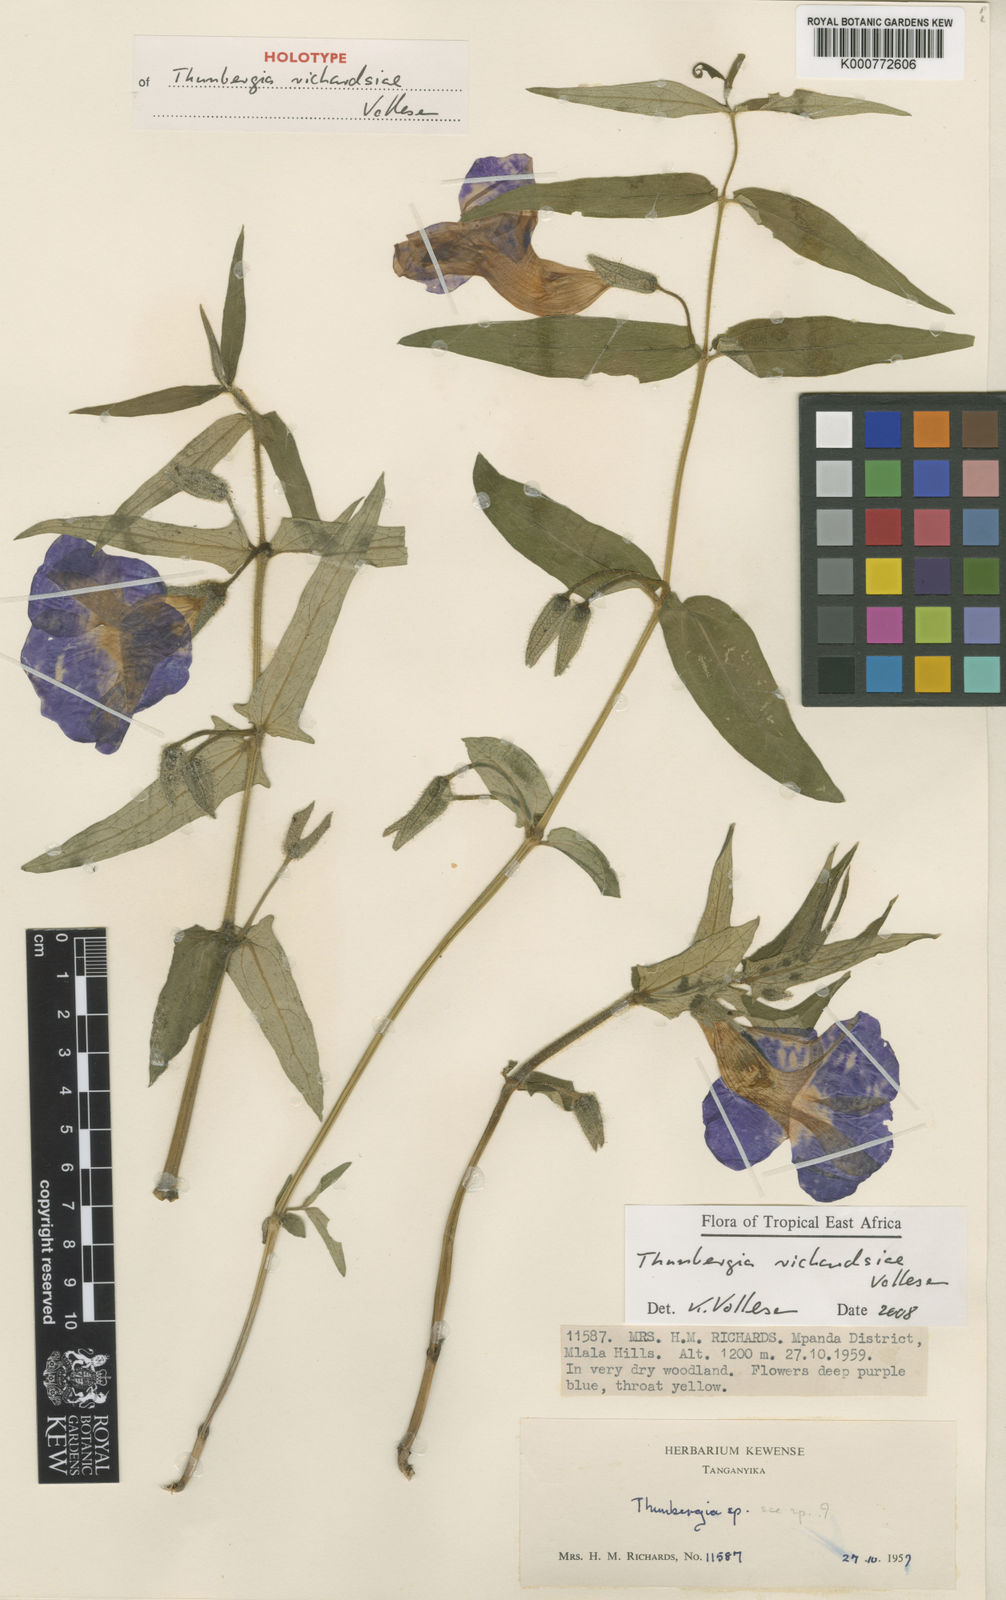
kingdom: Plantae
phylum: Tracheophyta
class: Magnoliopsida
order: Lamiales
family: Acanthaceae
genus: Thunbergia
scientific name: Thunbergia richardsiae
